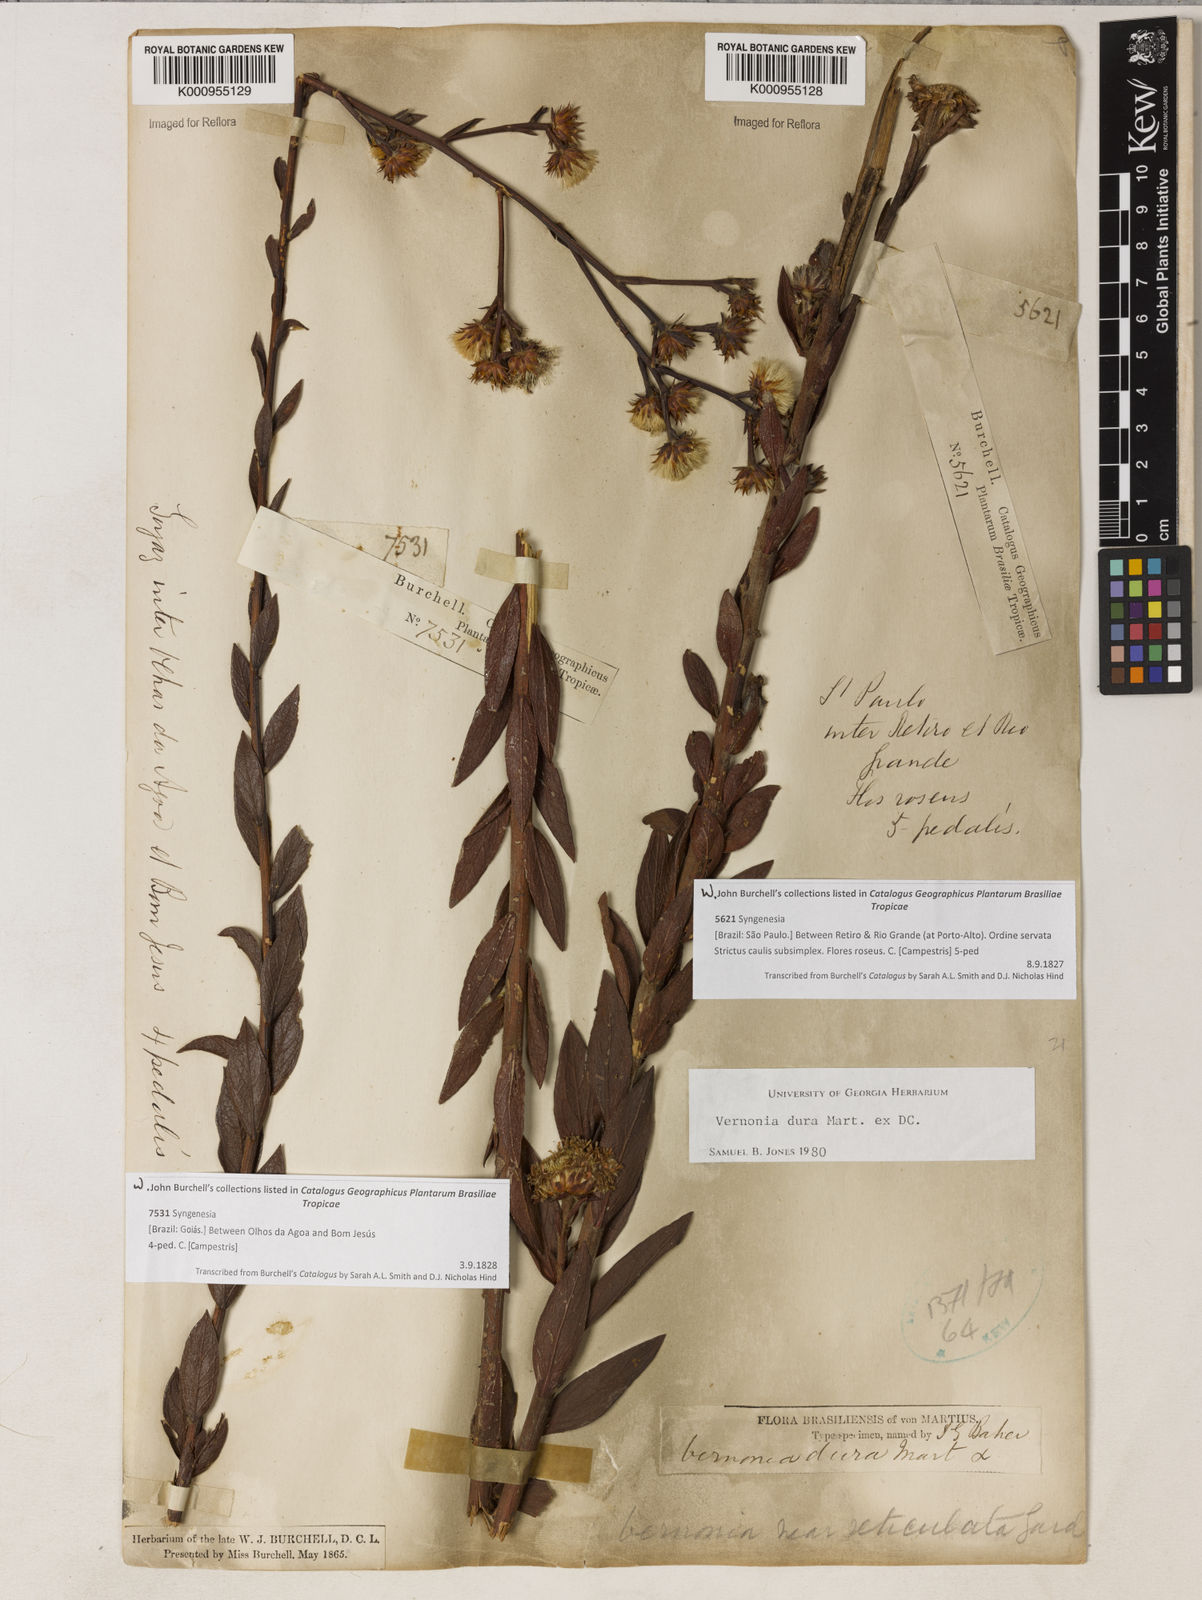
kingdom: Plantae
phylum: Tracheophyta
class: Magnoliopsida
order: Asterales
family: Asteraceae
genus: Lessingianthus
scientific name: Lessingianthus durus
